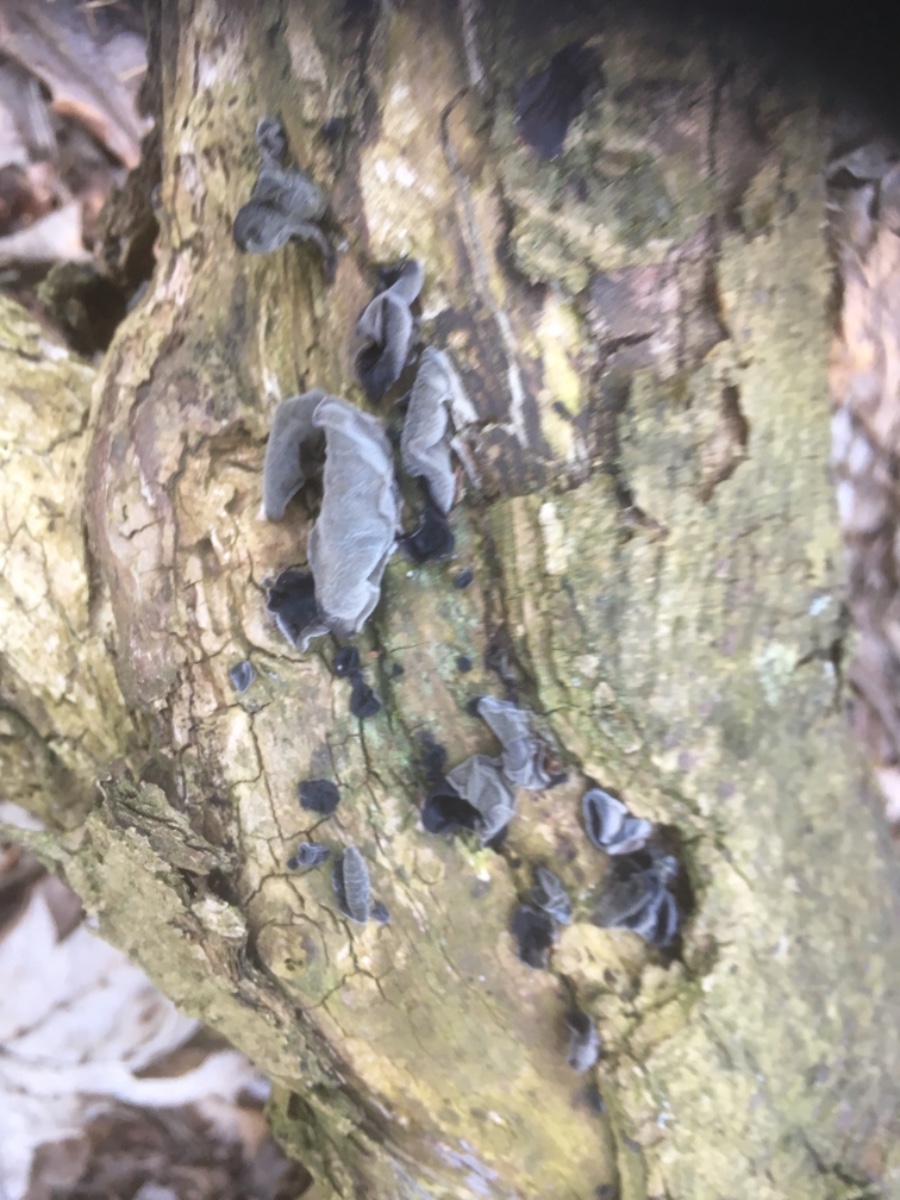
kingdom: Fungi
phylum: Basidiomycota
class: Agaricomycetes
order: Auriculariales
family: Auriculariaceae
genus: Auricularia
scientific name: Auricularia auricula-judae
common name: almindelig judasøre
